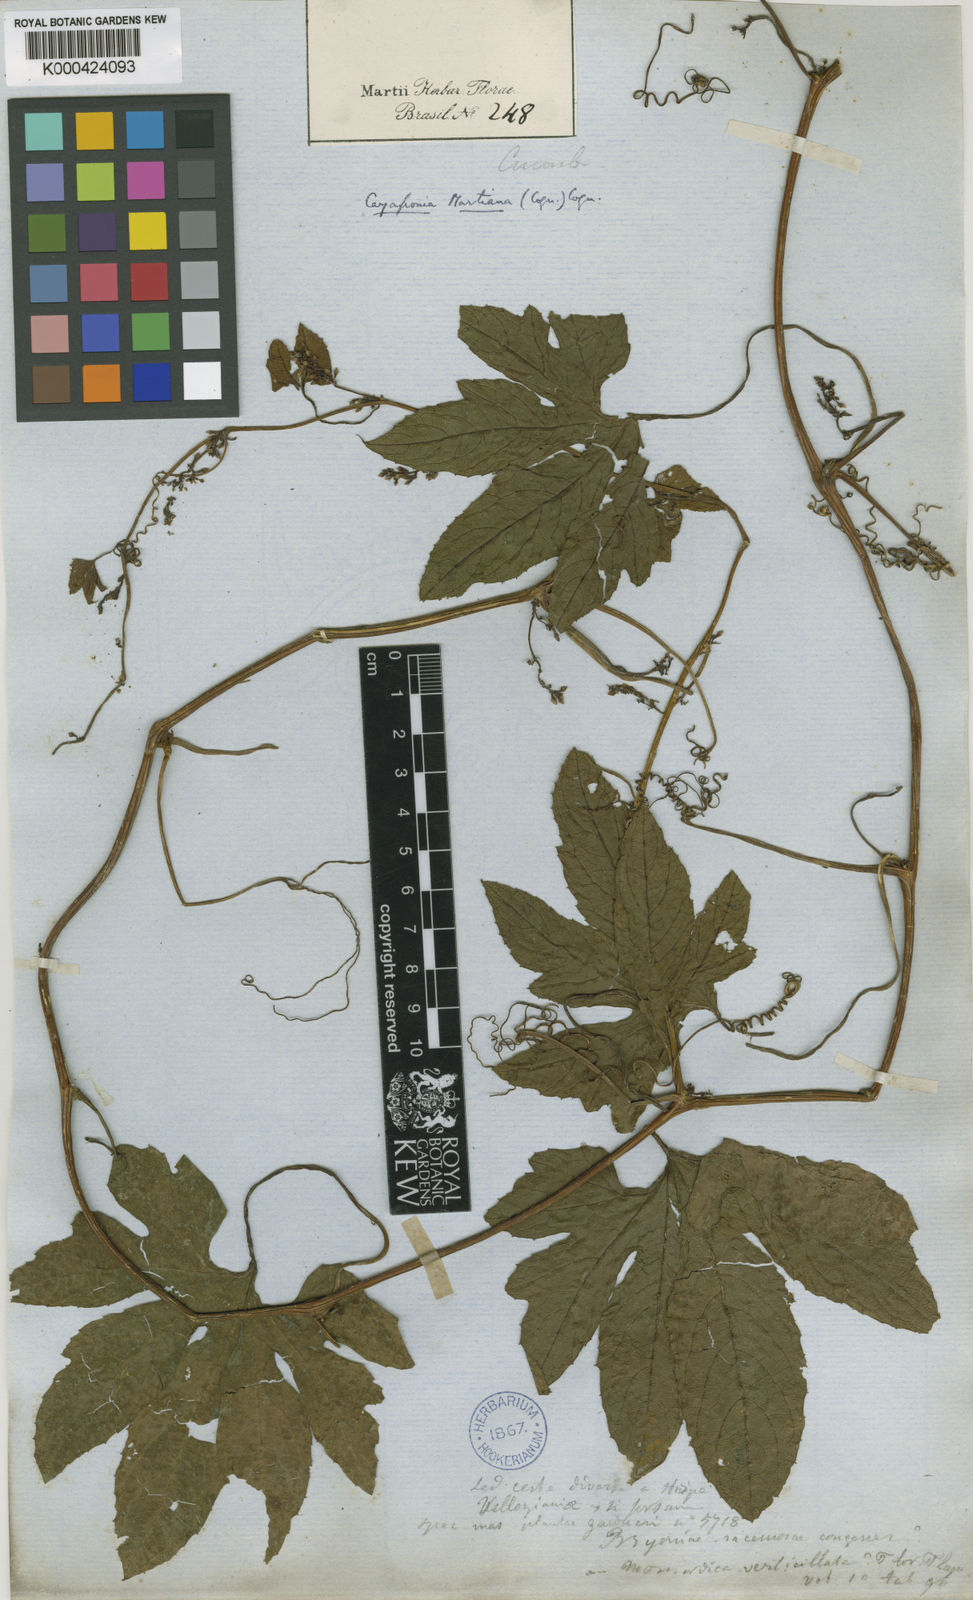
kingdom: Plantae
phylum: Tracheophyta
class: Magnoliopsida
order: Cucurbitales
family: Cucurbitaceae
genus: Cayaponia
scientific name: Cayaponia martiana
